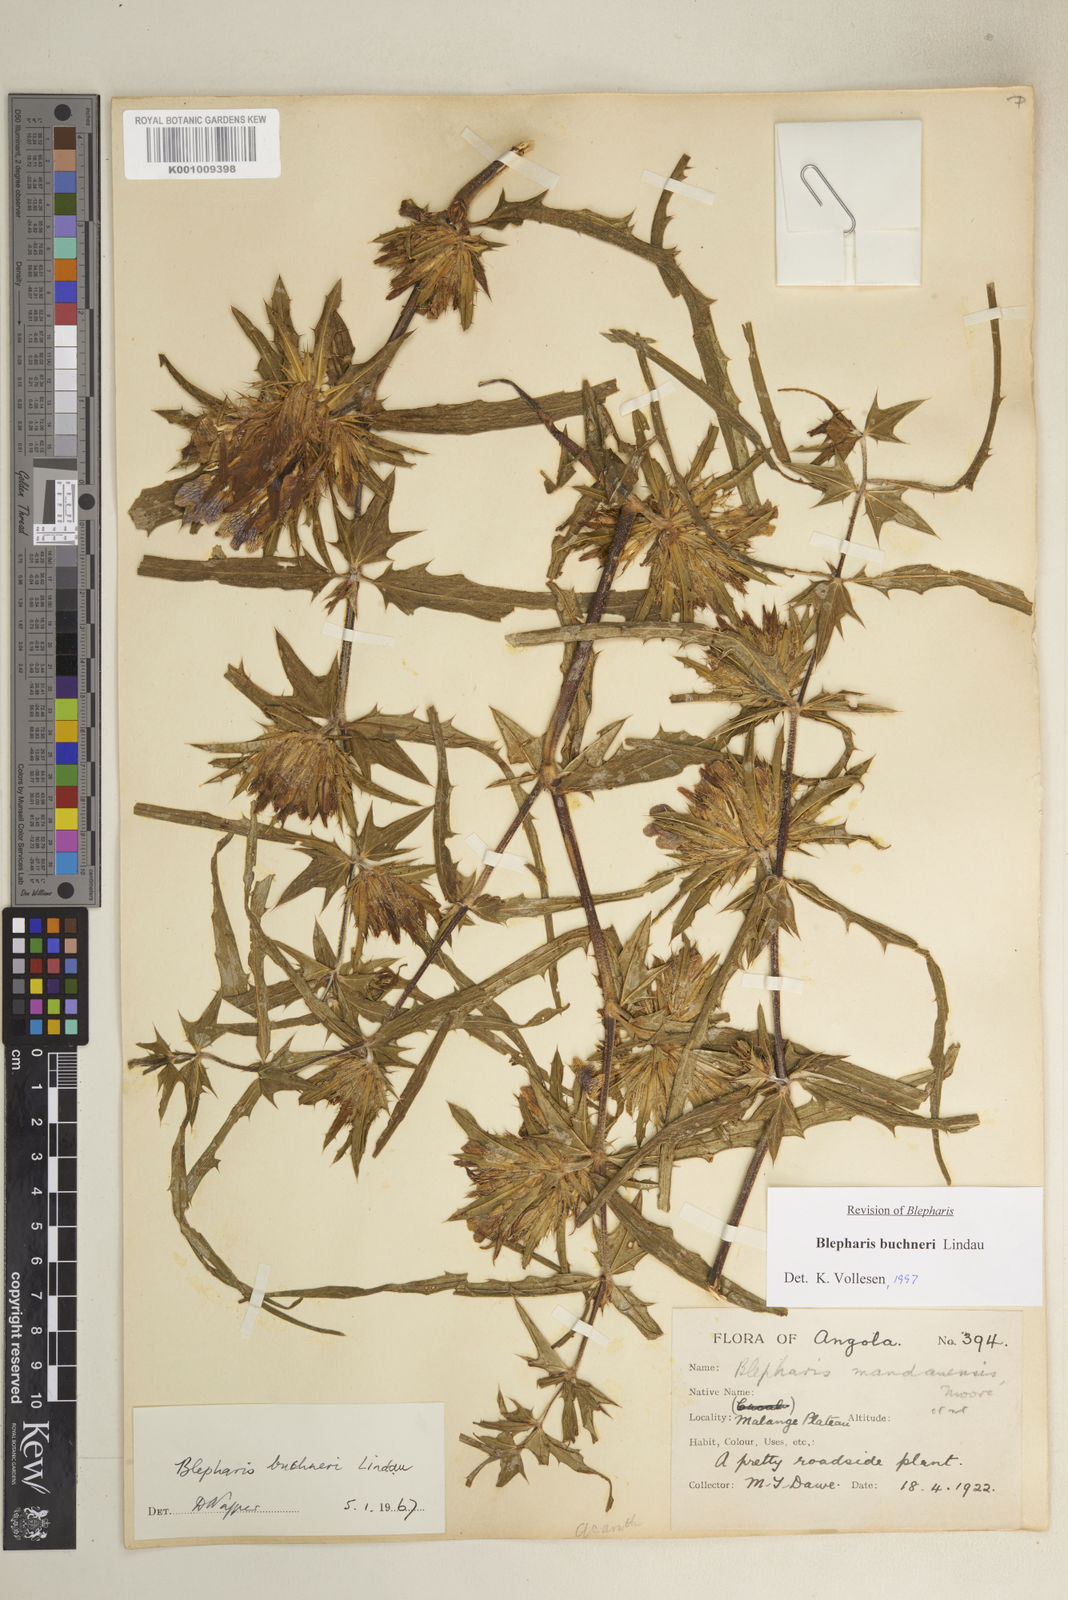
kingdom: Plantae
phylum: Tracheophyta
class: Magnoliopsida
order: Lamiales
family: Acanthaceae
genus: Blepharis
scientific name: Blepharis buchneri
